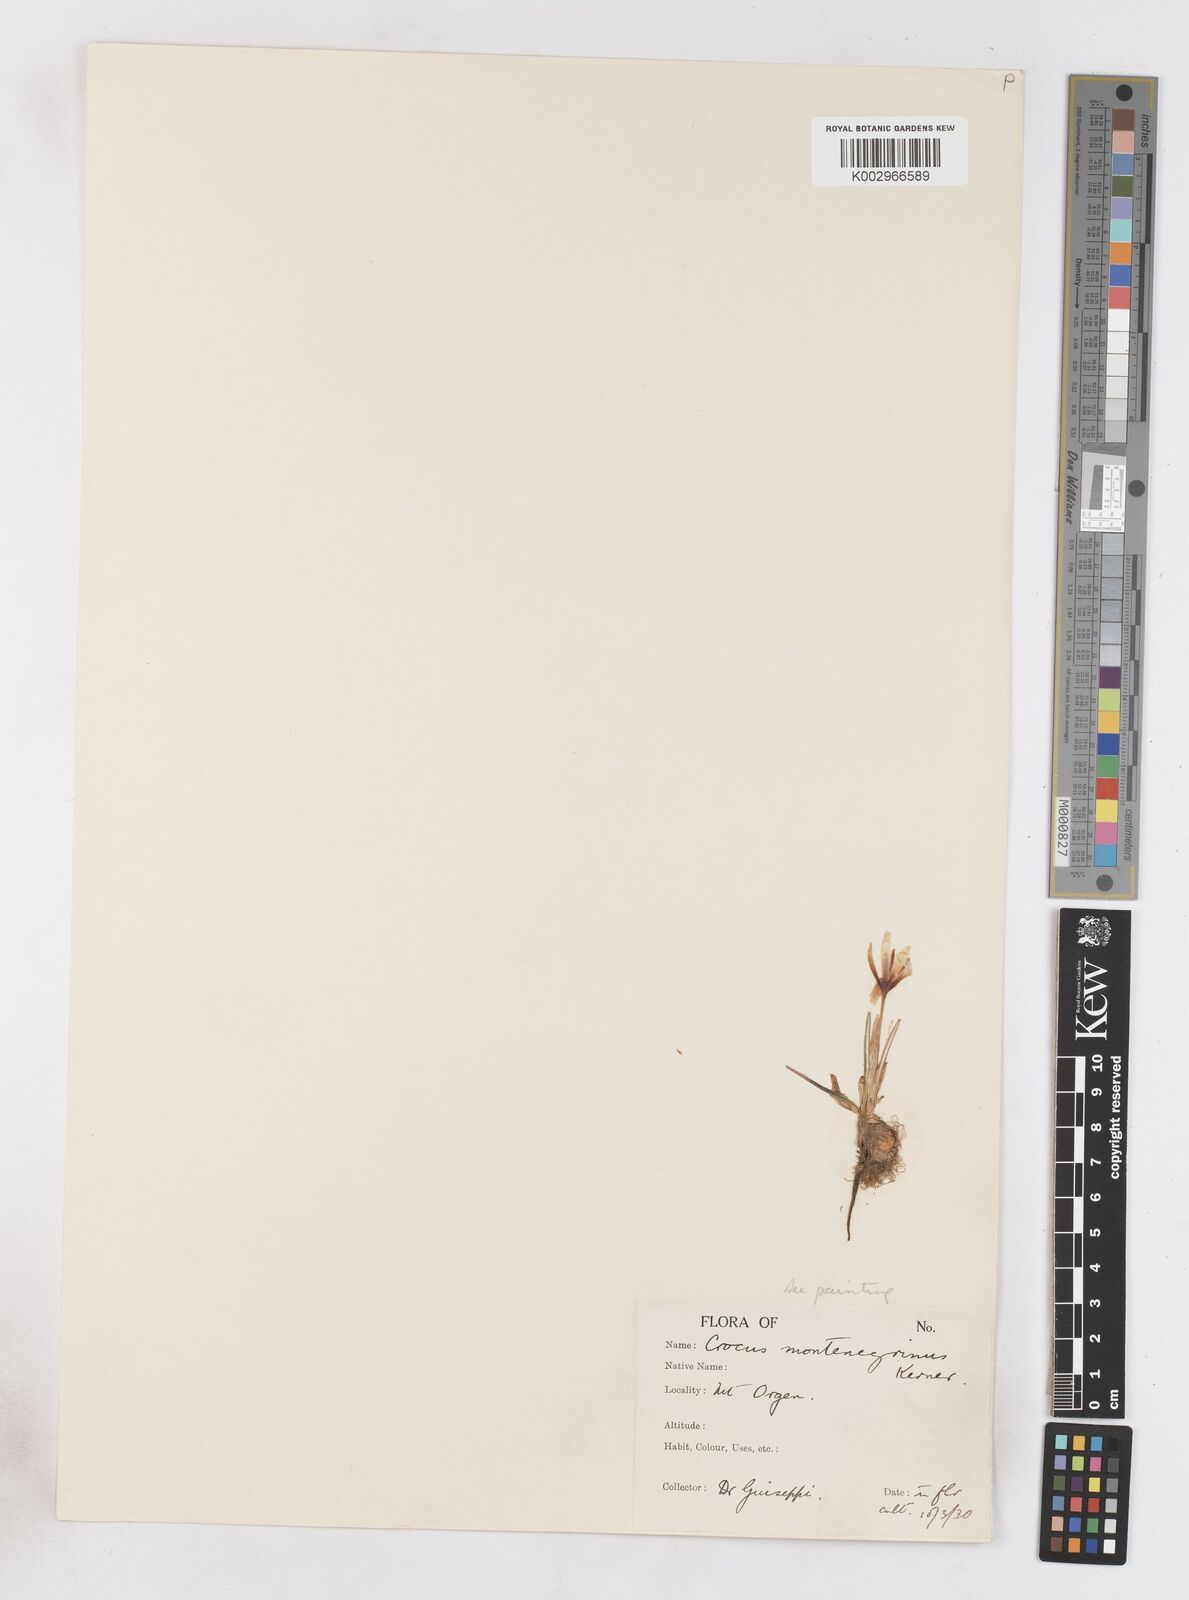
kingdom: Plantae
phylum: Tracheophyta
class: Liliopsida
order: Asparagales
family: Iridaceae
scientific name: Iridaceae
